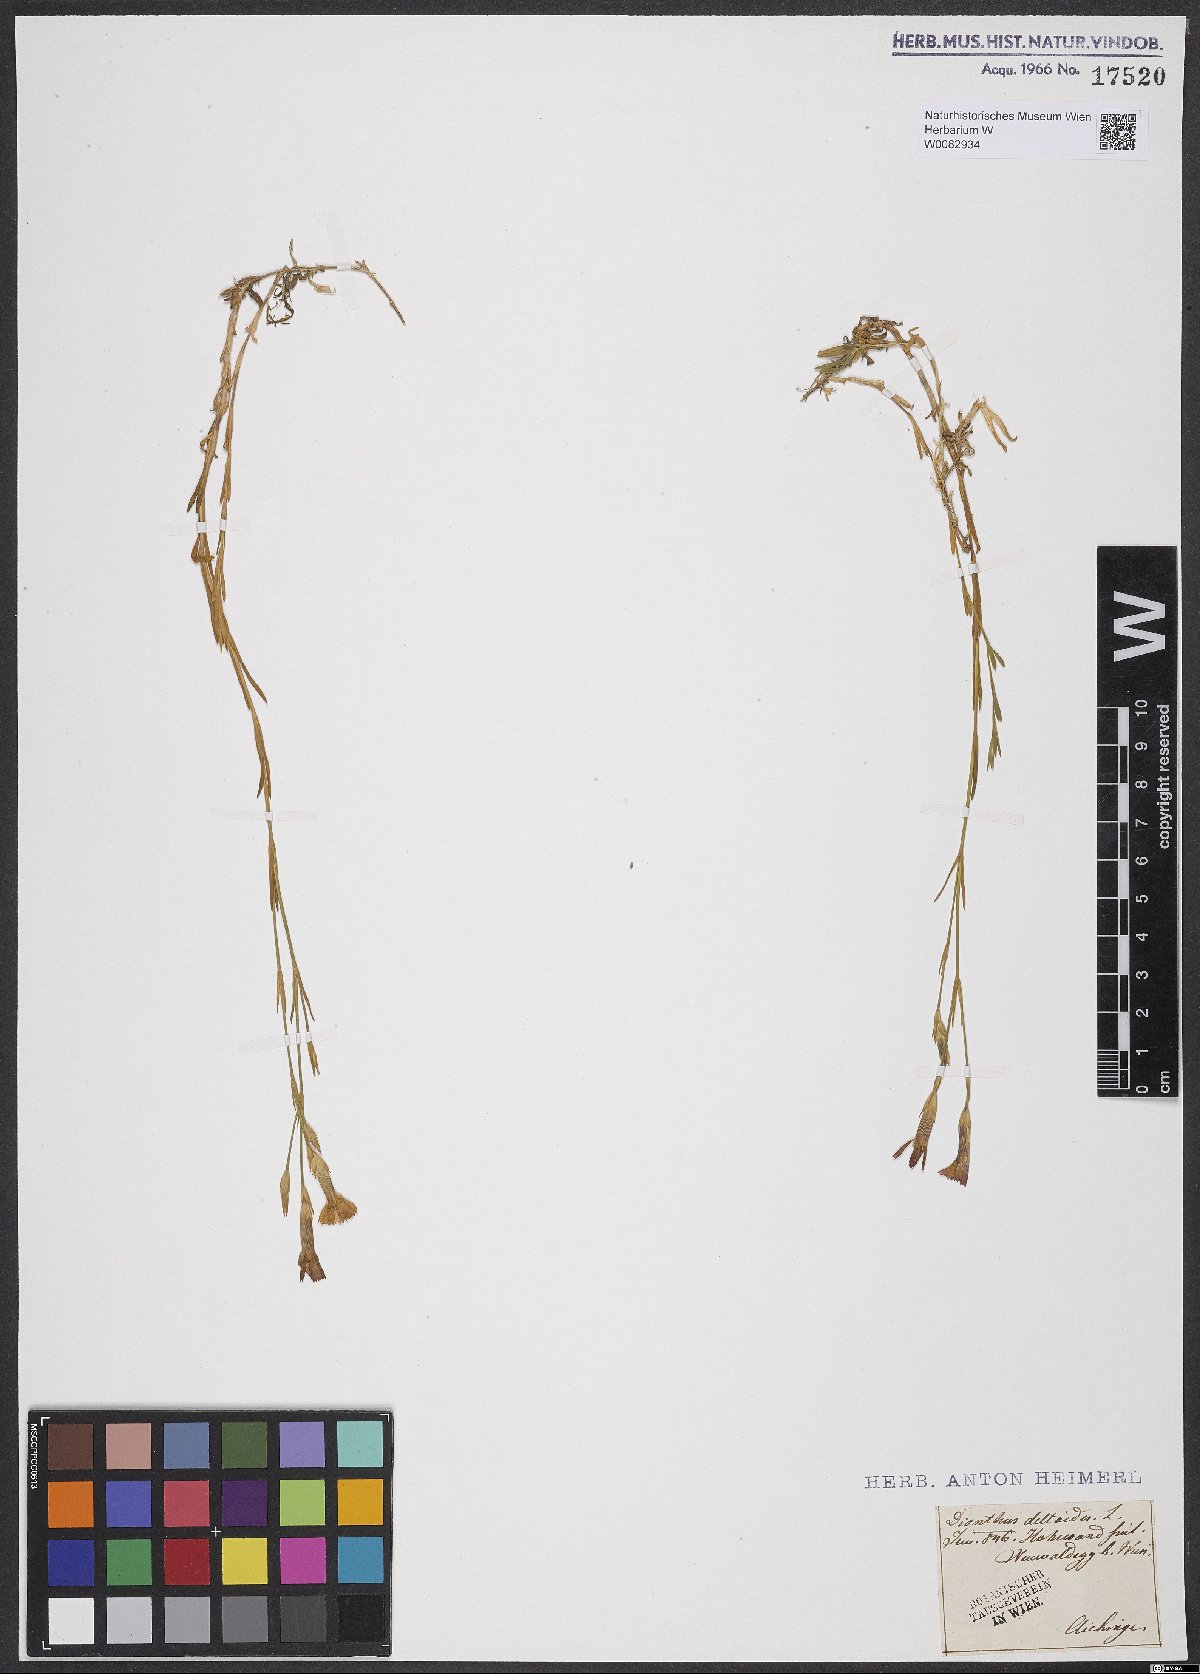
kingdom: Plantae
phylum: Tracheophyta
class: Magnoliopsida
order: Caryophyllales
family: Caryophyllaceae
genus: Dianthus
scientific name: Dianthus deltoides
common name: Maiden pink
